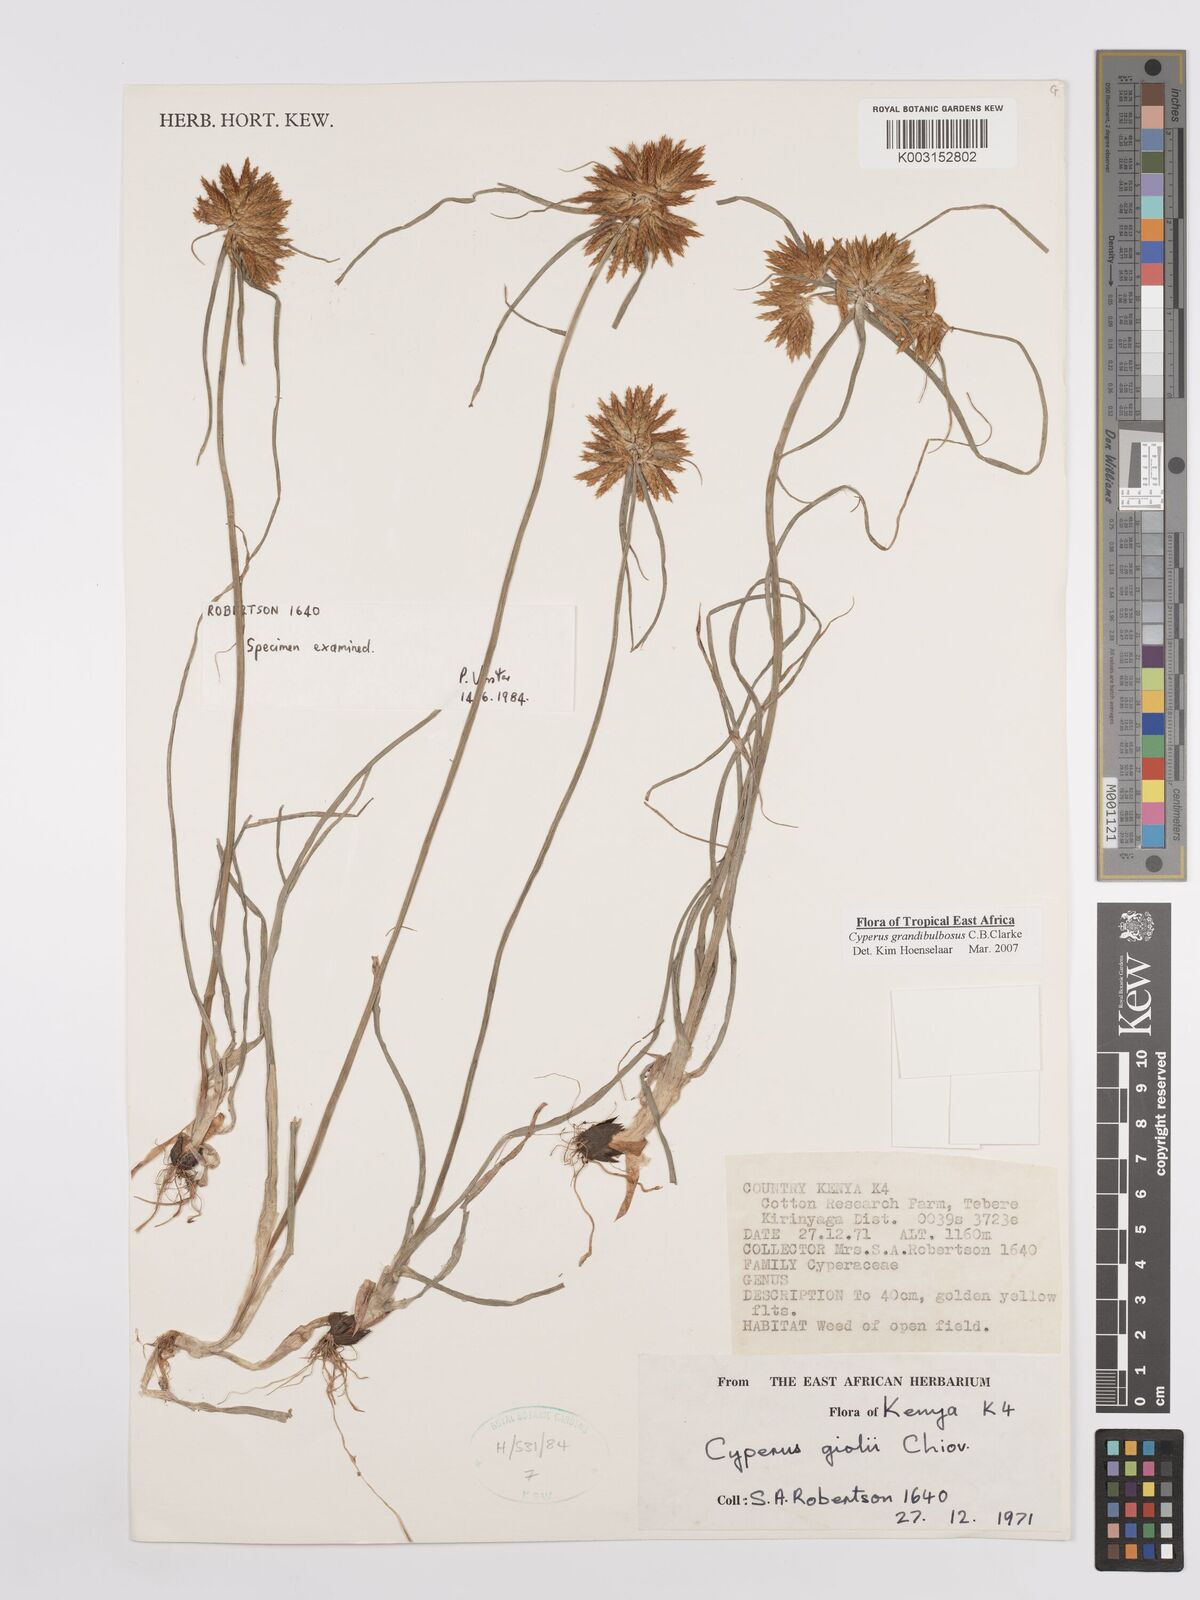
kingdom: Plantae
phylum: Tracheophyta
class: Liliopsida
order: Poales
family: Cyperaceae
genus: Cyperus
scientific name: Cyperus grandibulbosus
